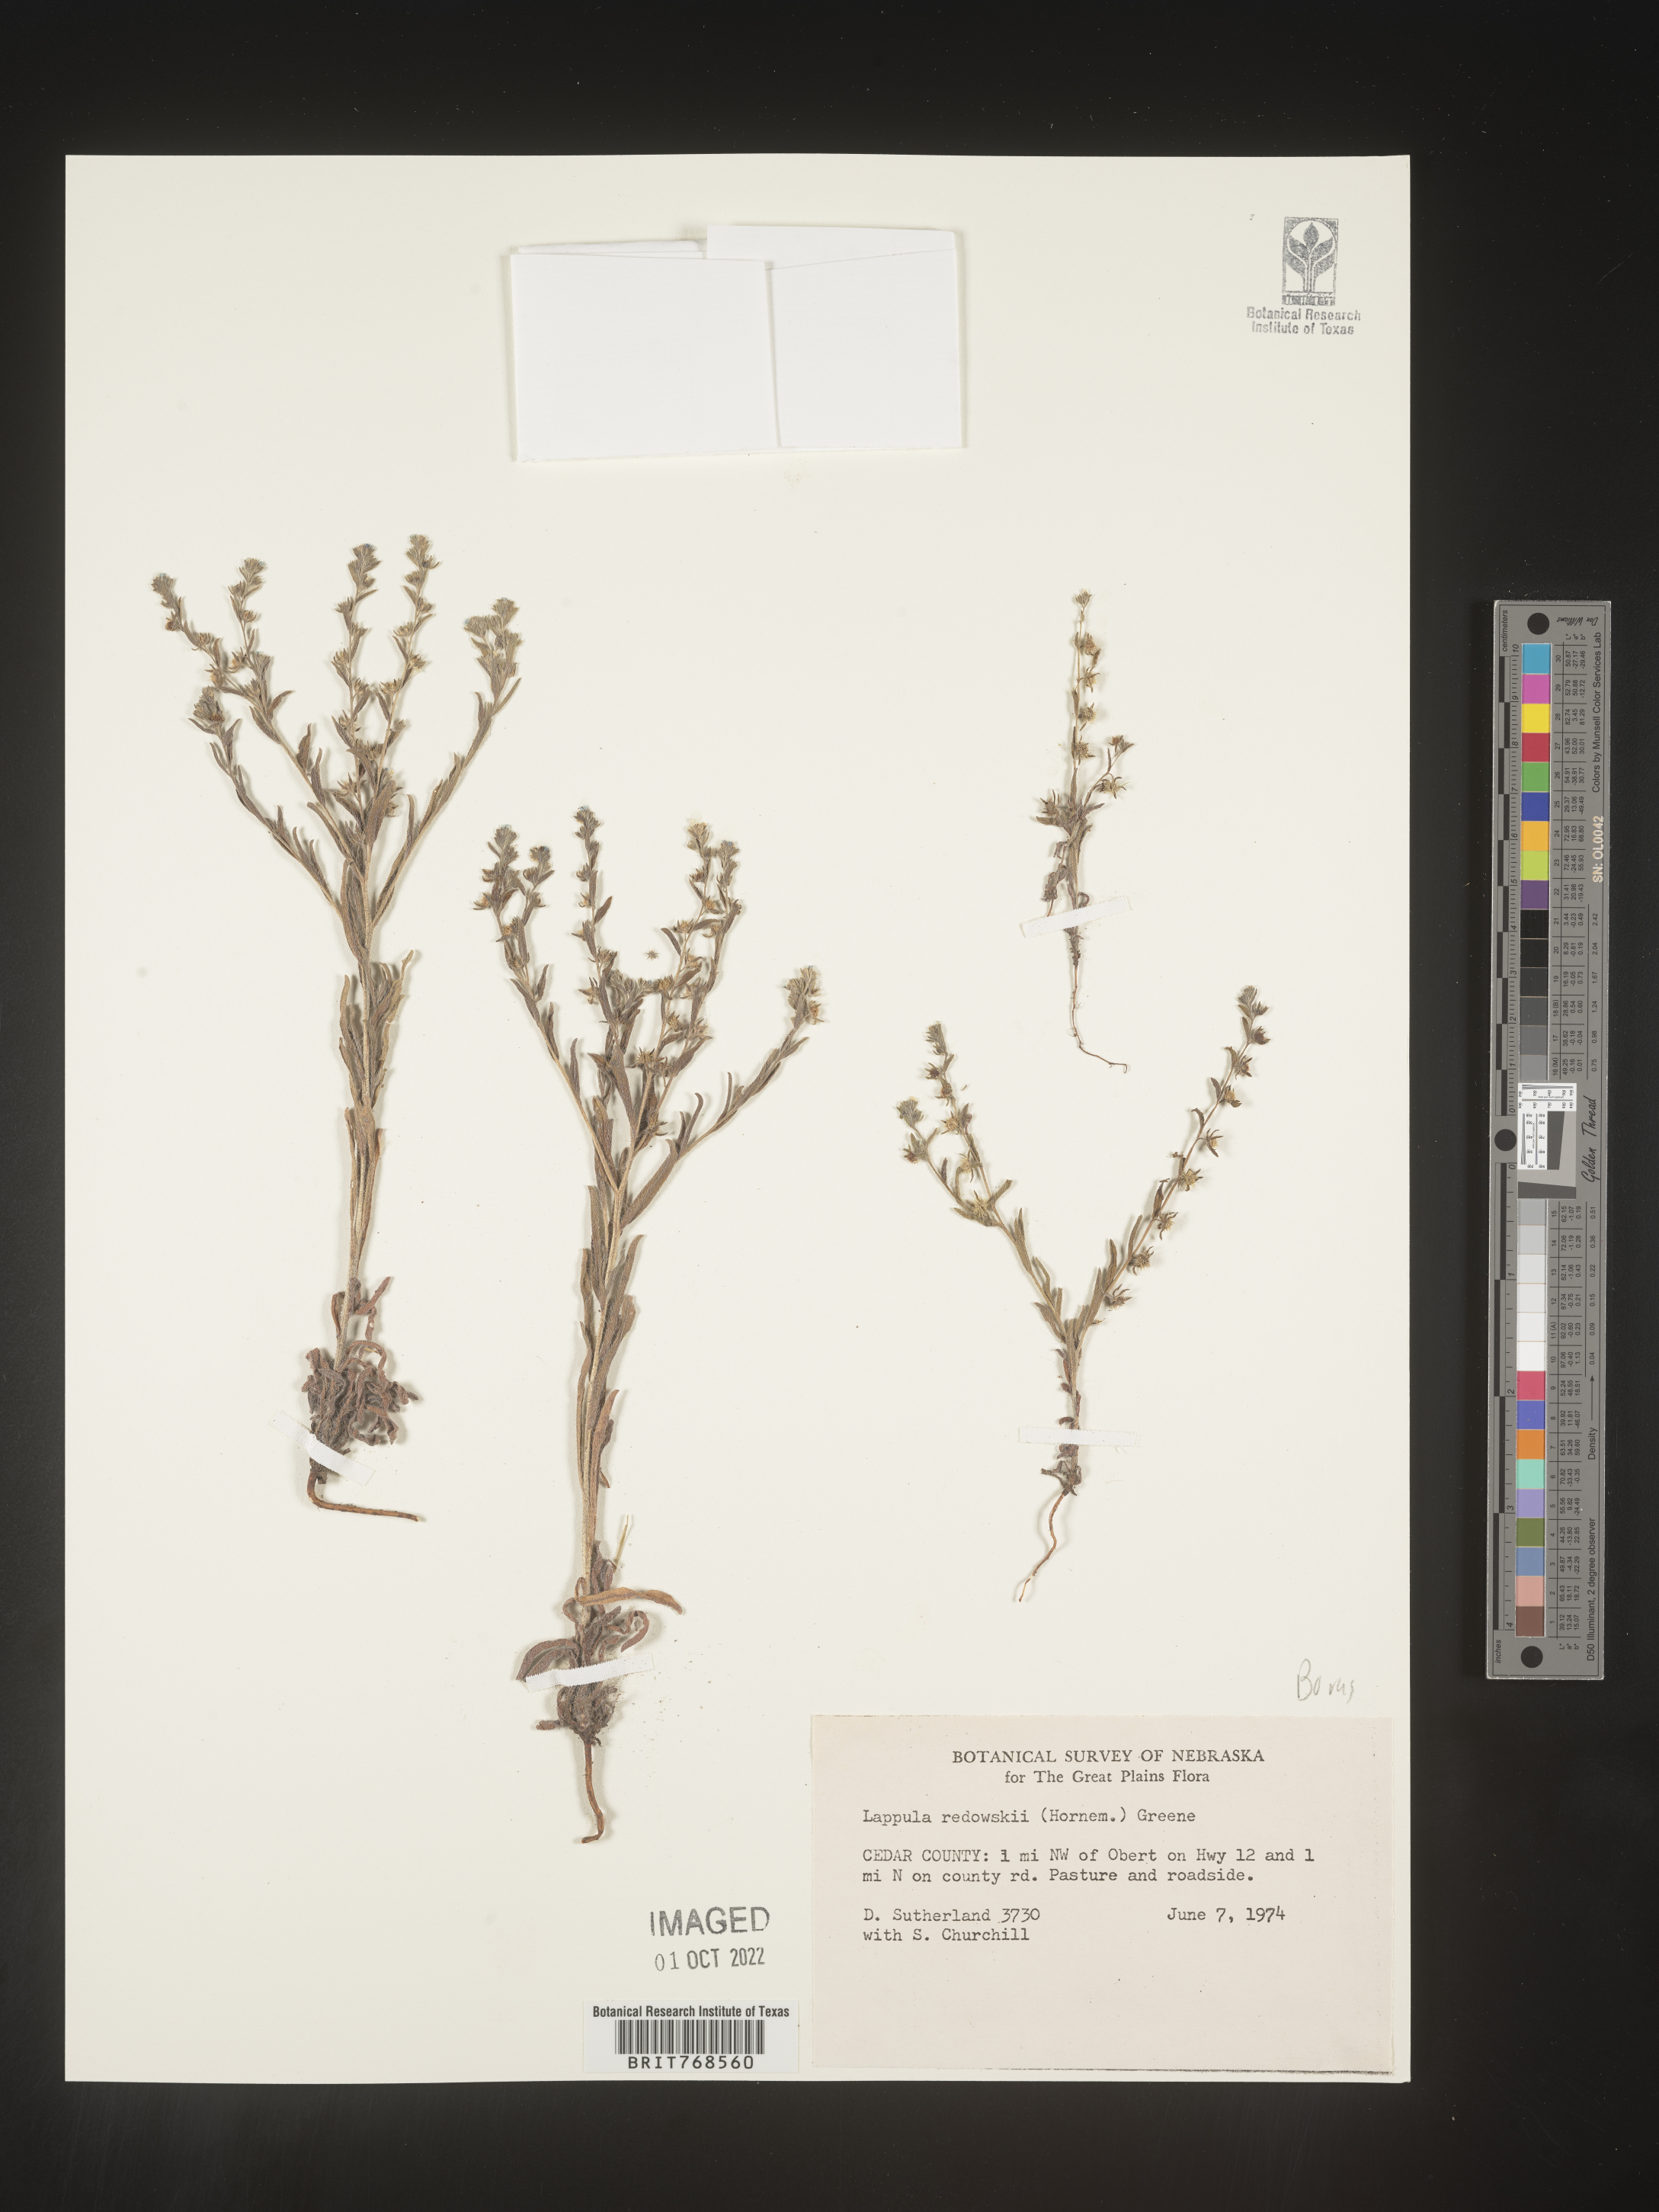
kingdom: Plantae
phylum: Tracheophyta
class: Magnoliopsida
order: Boraginales
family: Boraginaceae
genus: Lappula
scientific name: Lappula redowskii
